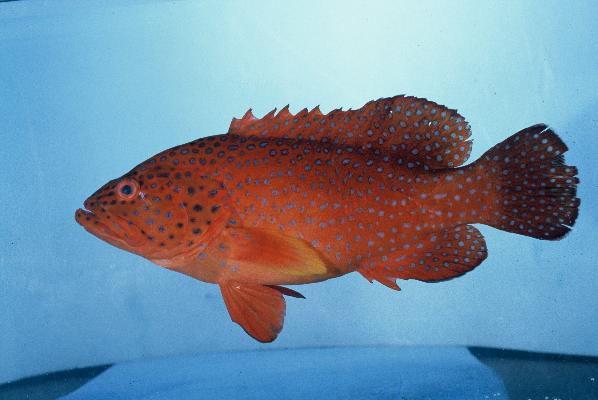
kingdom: Animalia
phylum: Chordata
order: Perciformes
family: Serranidae
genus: Cephalopholis
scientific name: Cephalopholis miniata
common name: Coral hind
